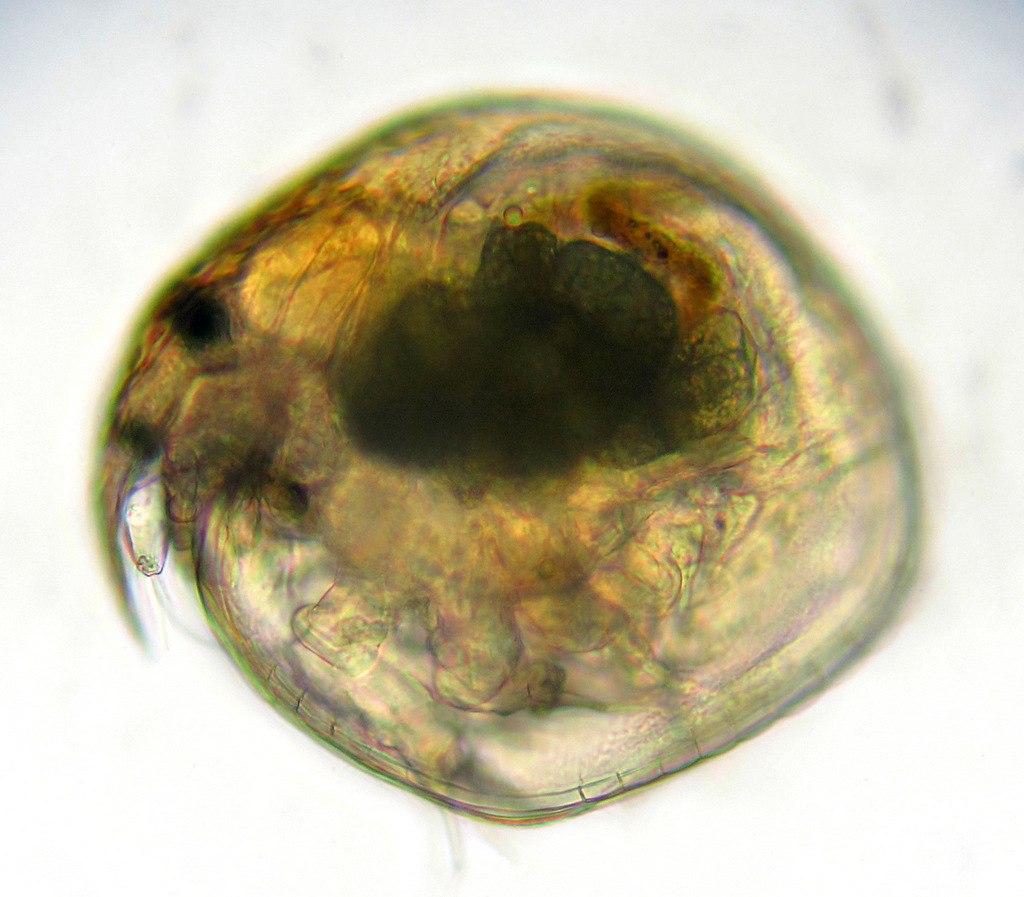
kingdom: Animalia
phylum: Arthropoda
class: Branchiopoda
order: Diplostraca
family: Chydoridae
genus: Chydorus
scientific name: Chydorus sphaericus
